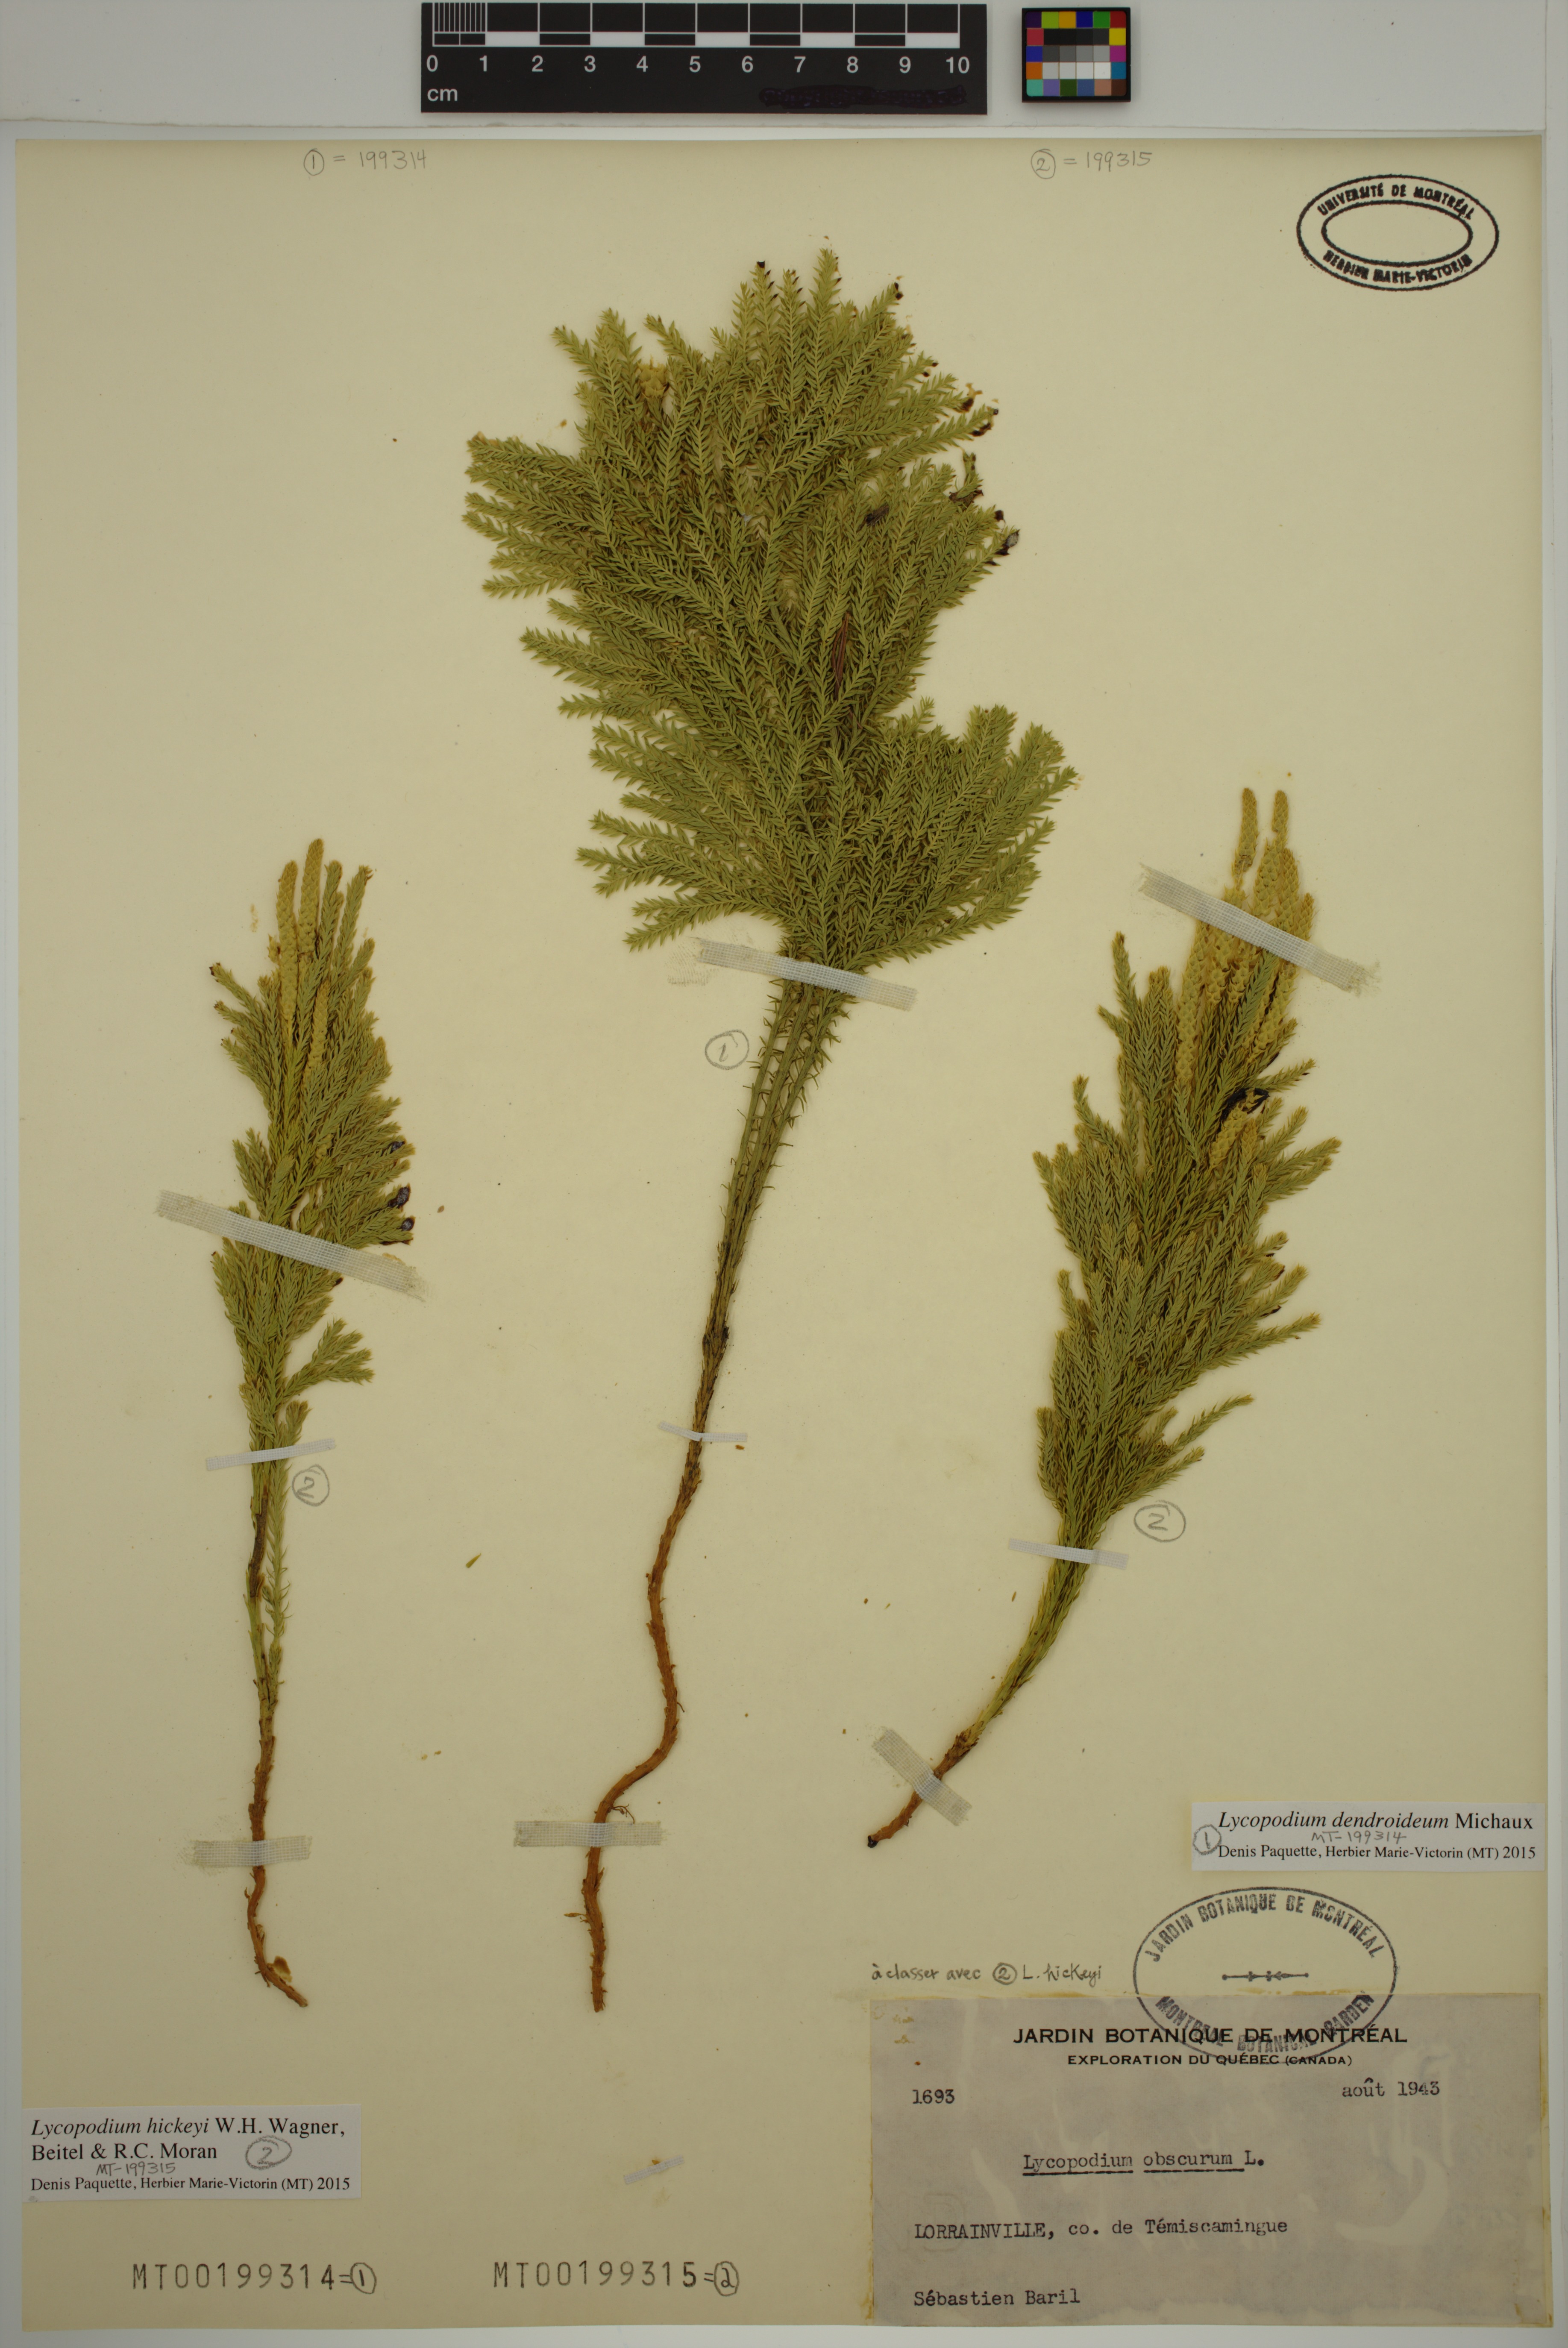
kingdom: Plantae
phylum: Tracheophyta
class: Lycopodiopsida
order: Lycopodiales
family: Lycopodiaceae
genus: Dendrolycopodium
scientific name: Dendrolycopodium dendroideum
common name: Northern tree-clubmoss
